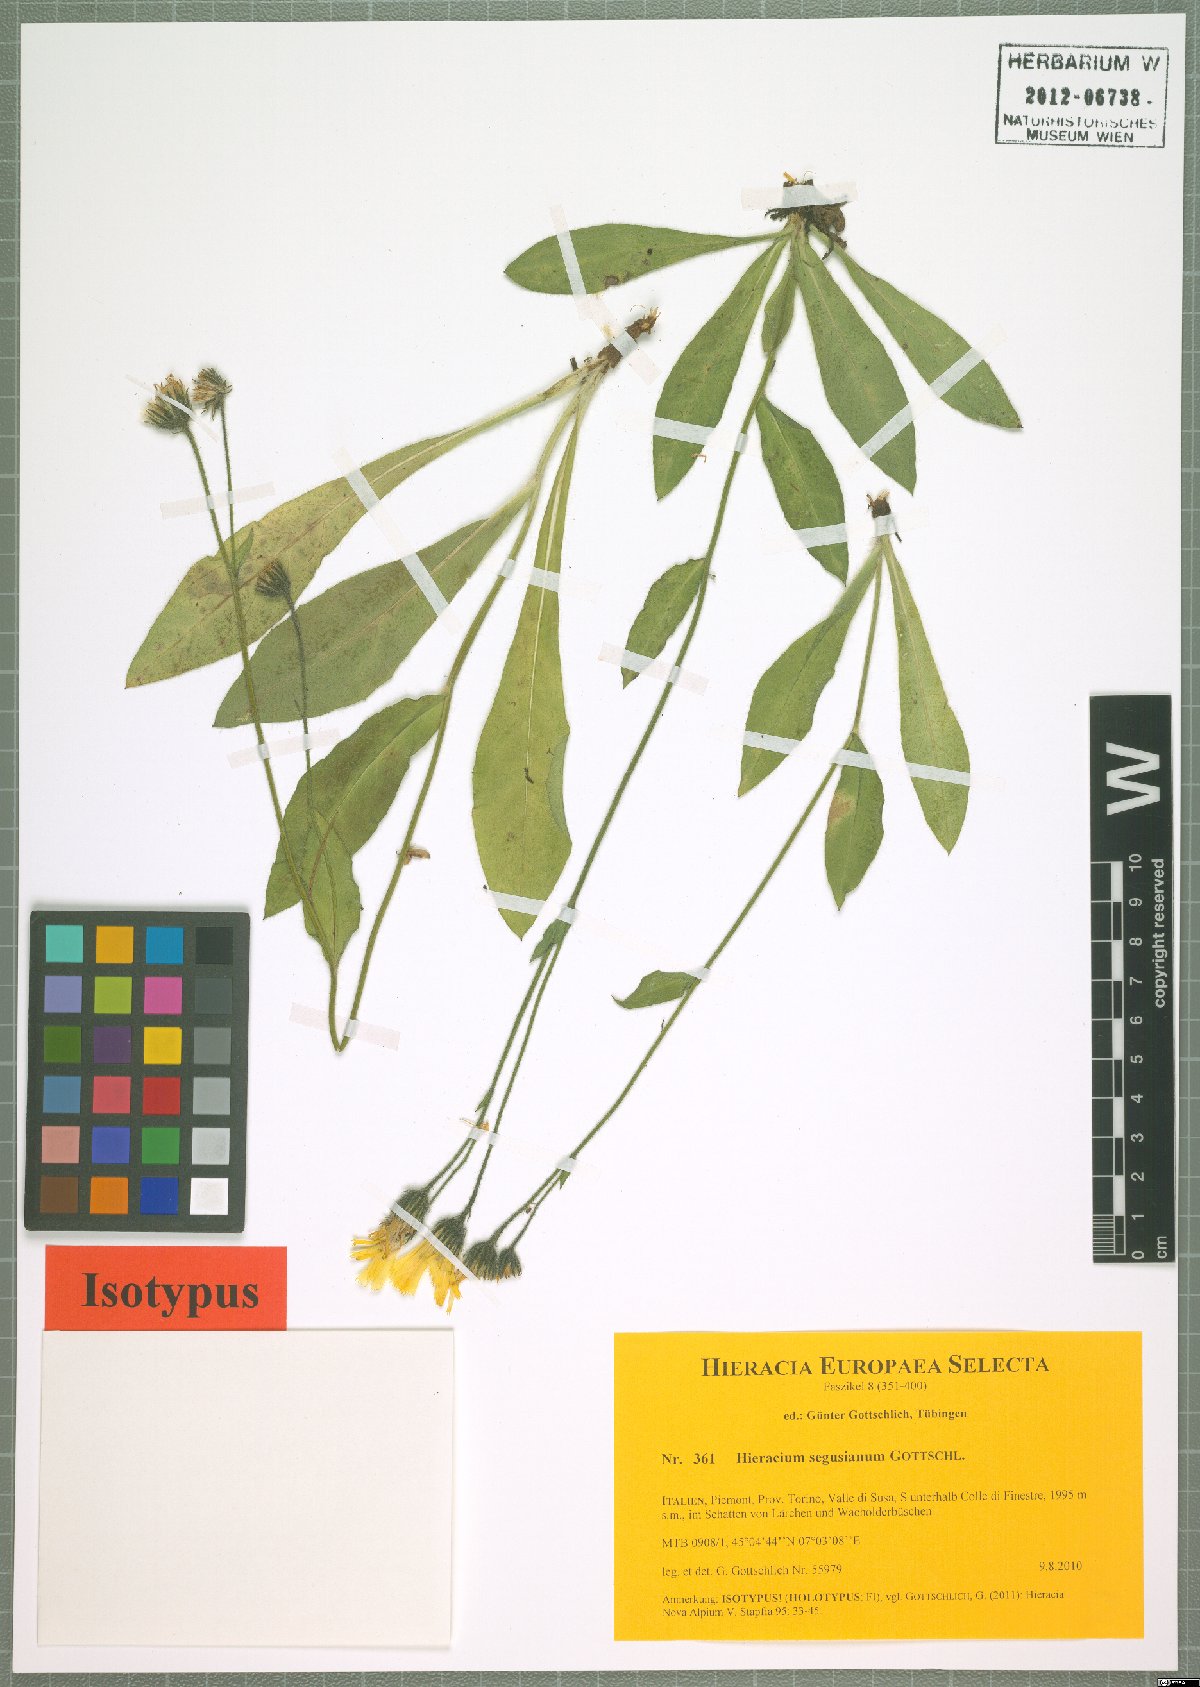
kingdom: Plantae
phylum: Tracheophyta
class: Magnoliopsida
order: Asterales
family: Asteraceae
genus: Hieracium
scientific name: Hieracium segusianum
